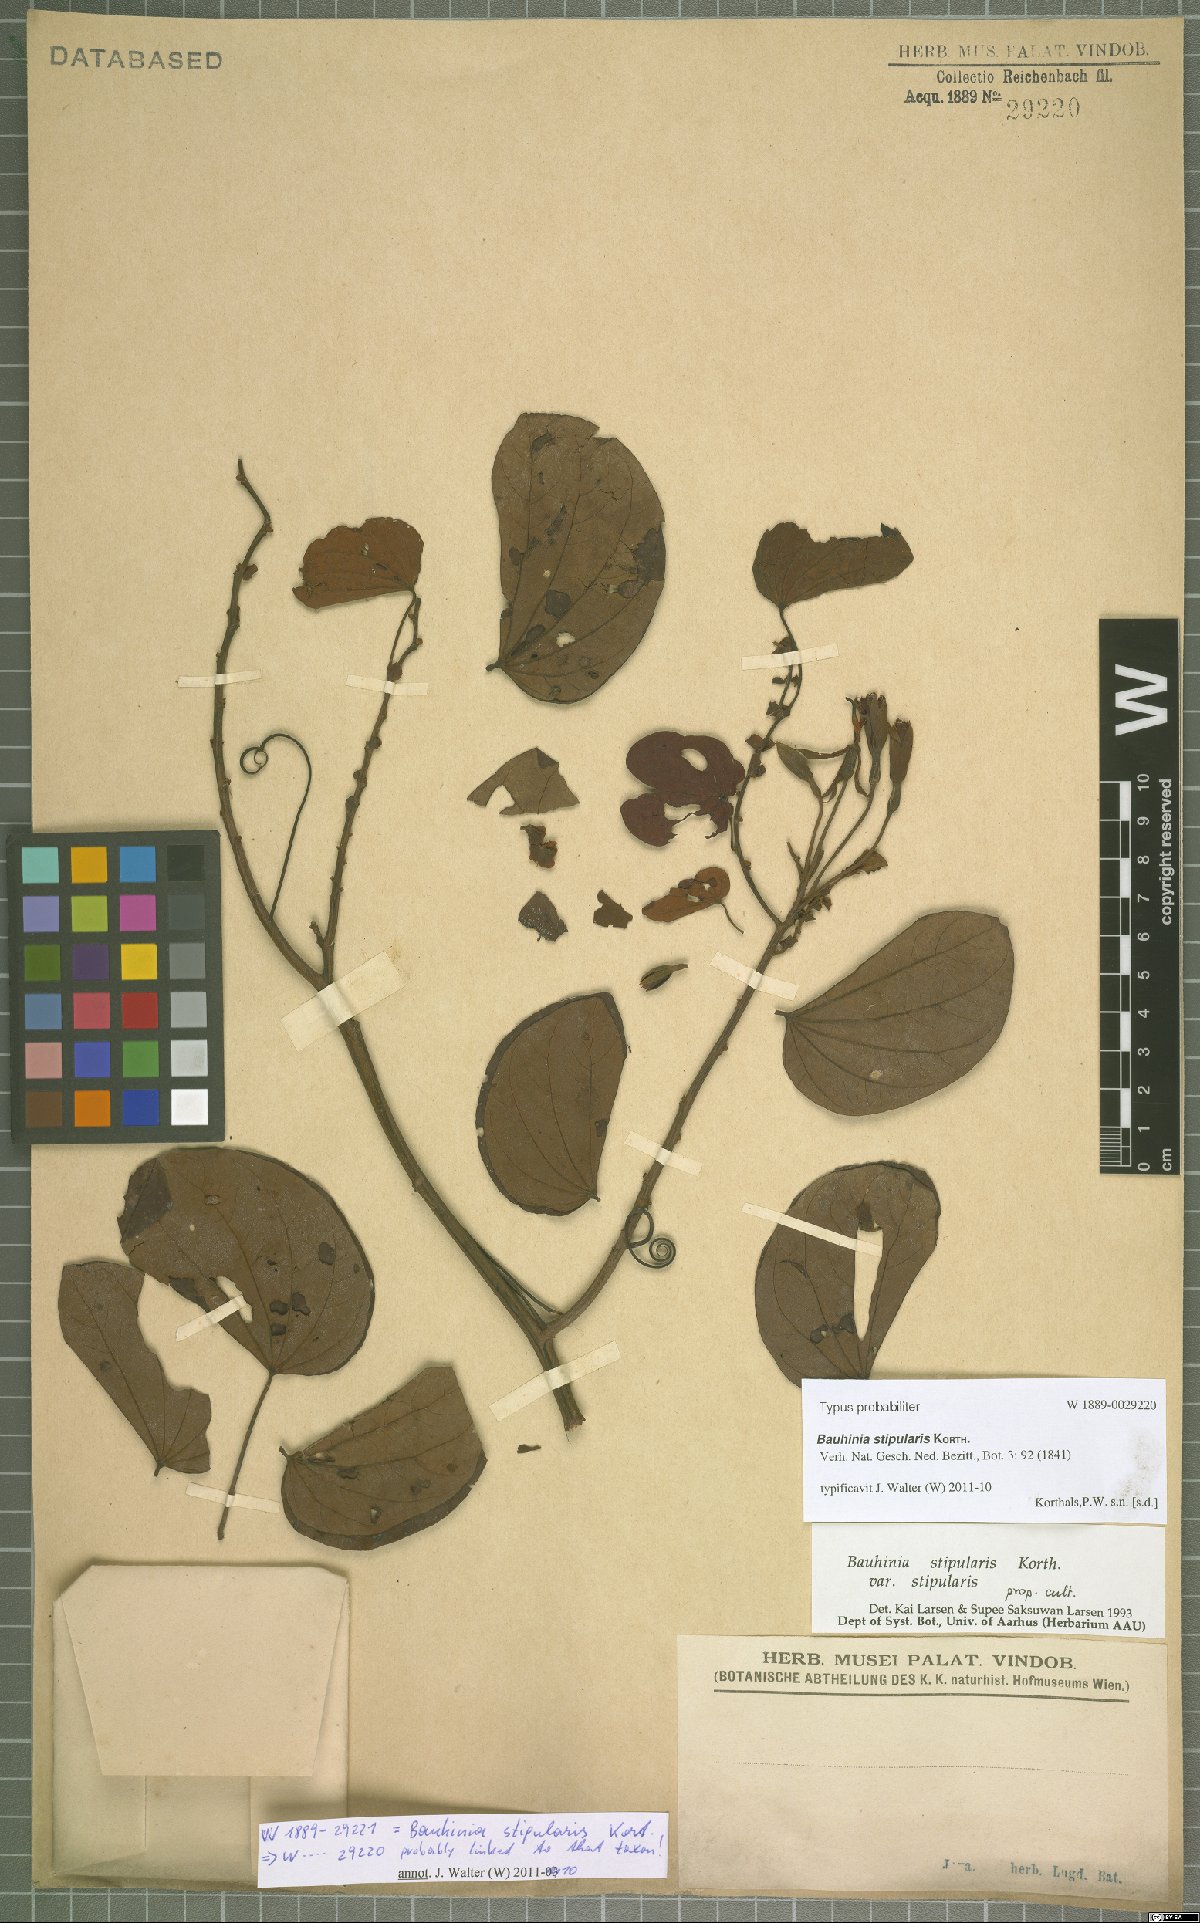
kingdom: Plantae
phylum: Tracheophyta
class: Magnoliopsida
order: Fabales
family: Fabaceae
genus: Phanera
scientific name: Phanera stipularis
